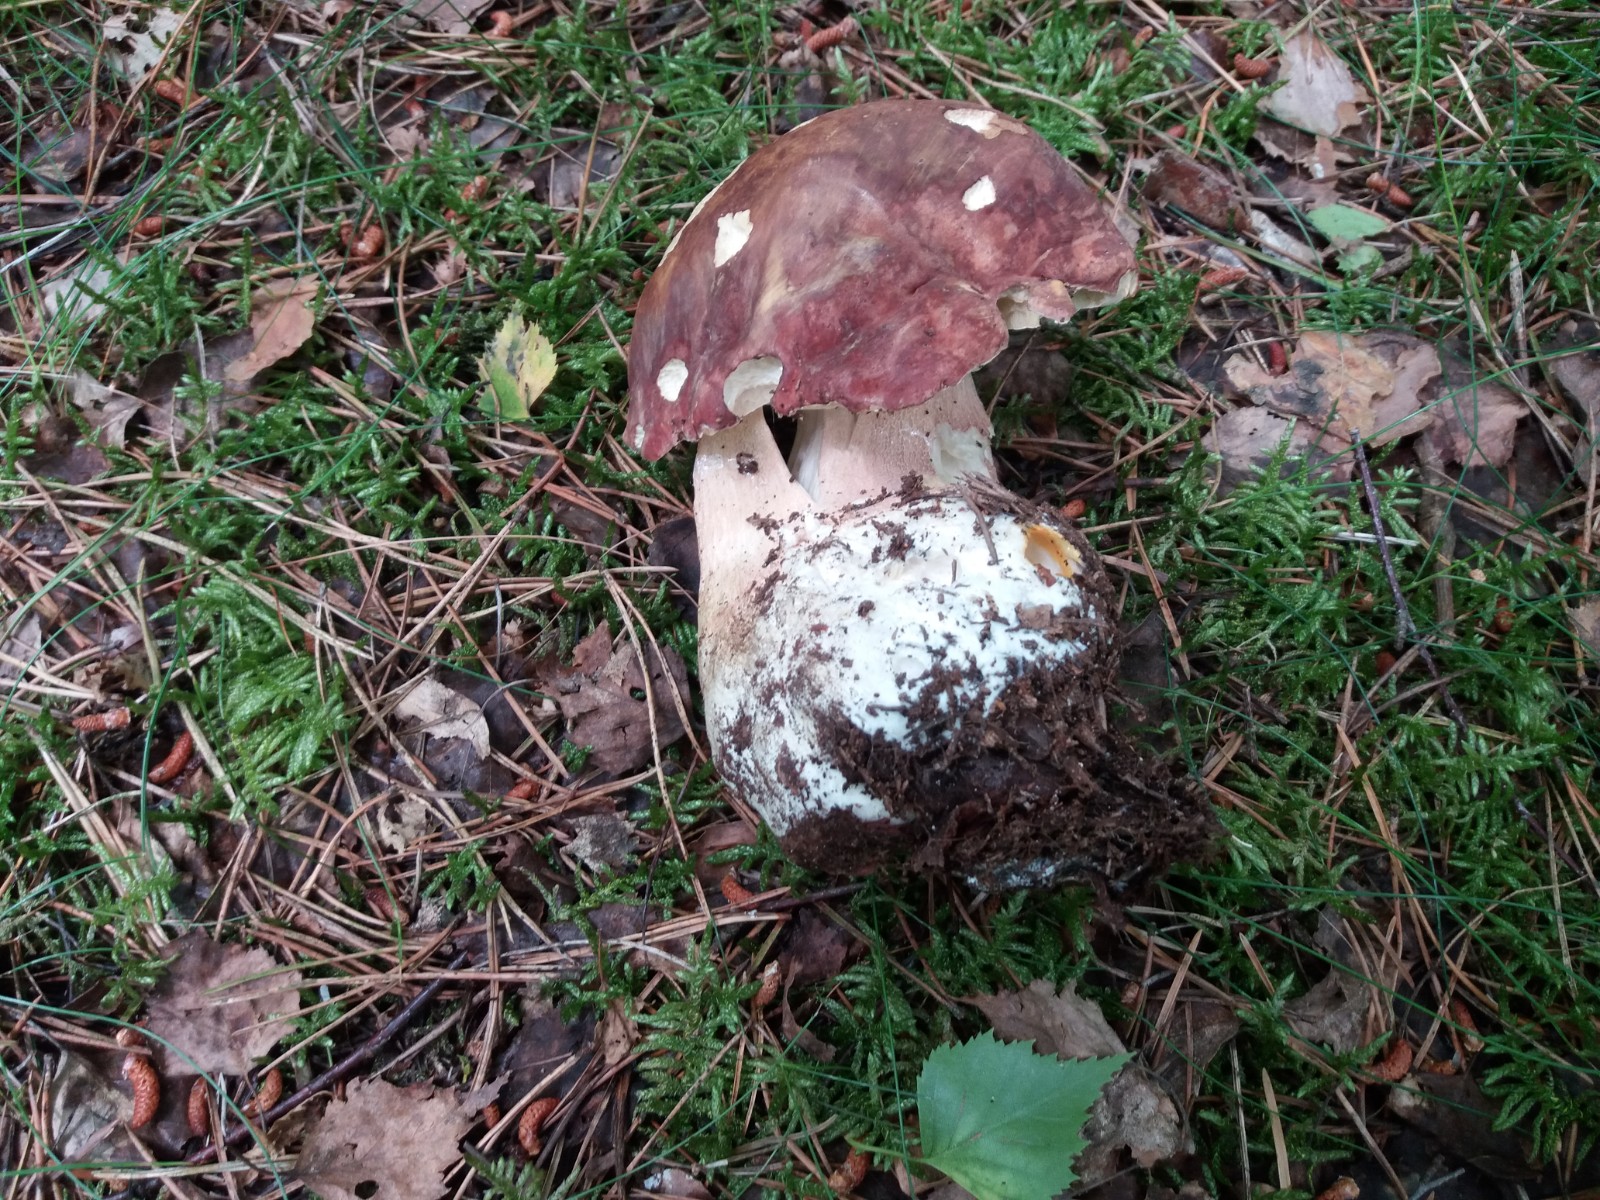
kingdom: Fungi
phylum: Basidiomycota
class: Agaricomycetes
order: Boletales
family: Boletaceae
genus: Boletus
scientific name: Boletus pinophilus
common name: rødbrun rørhat
